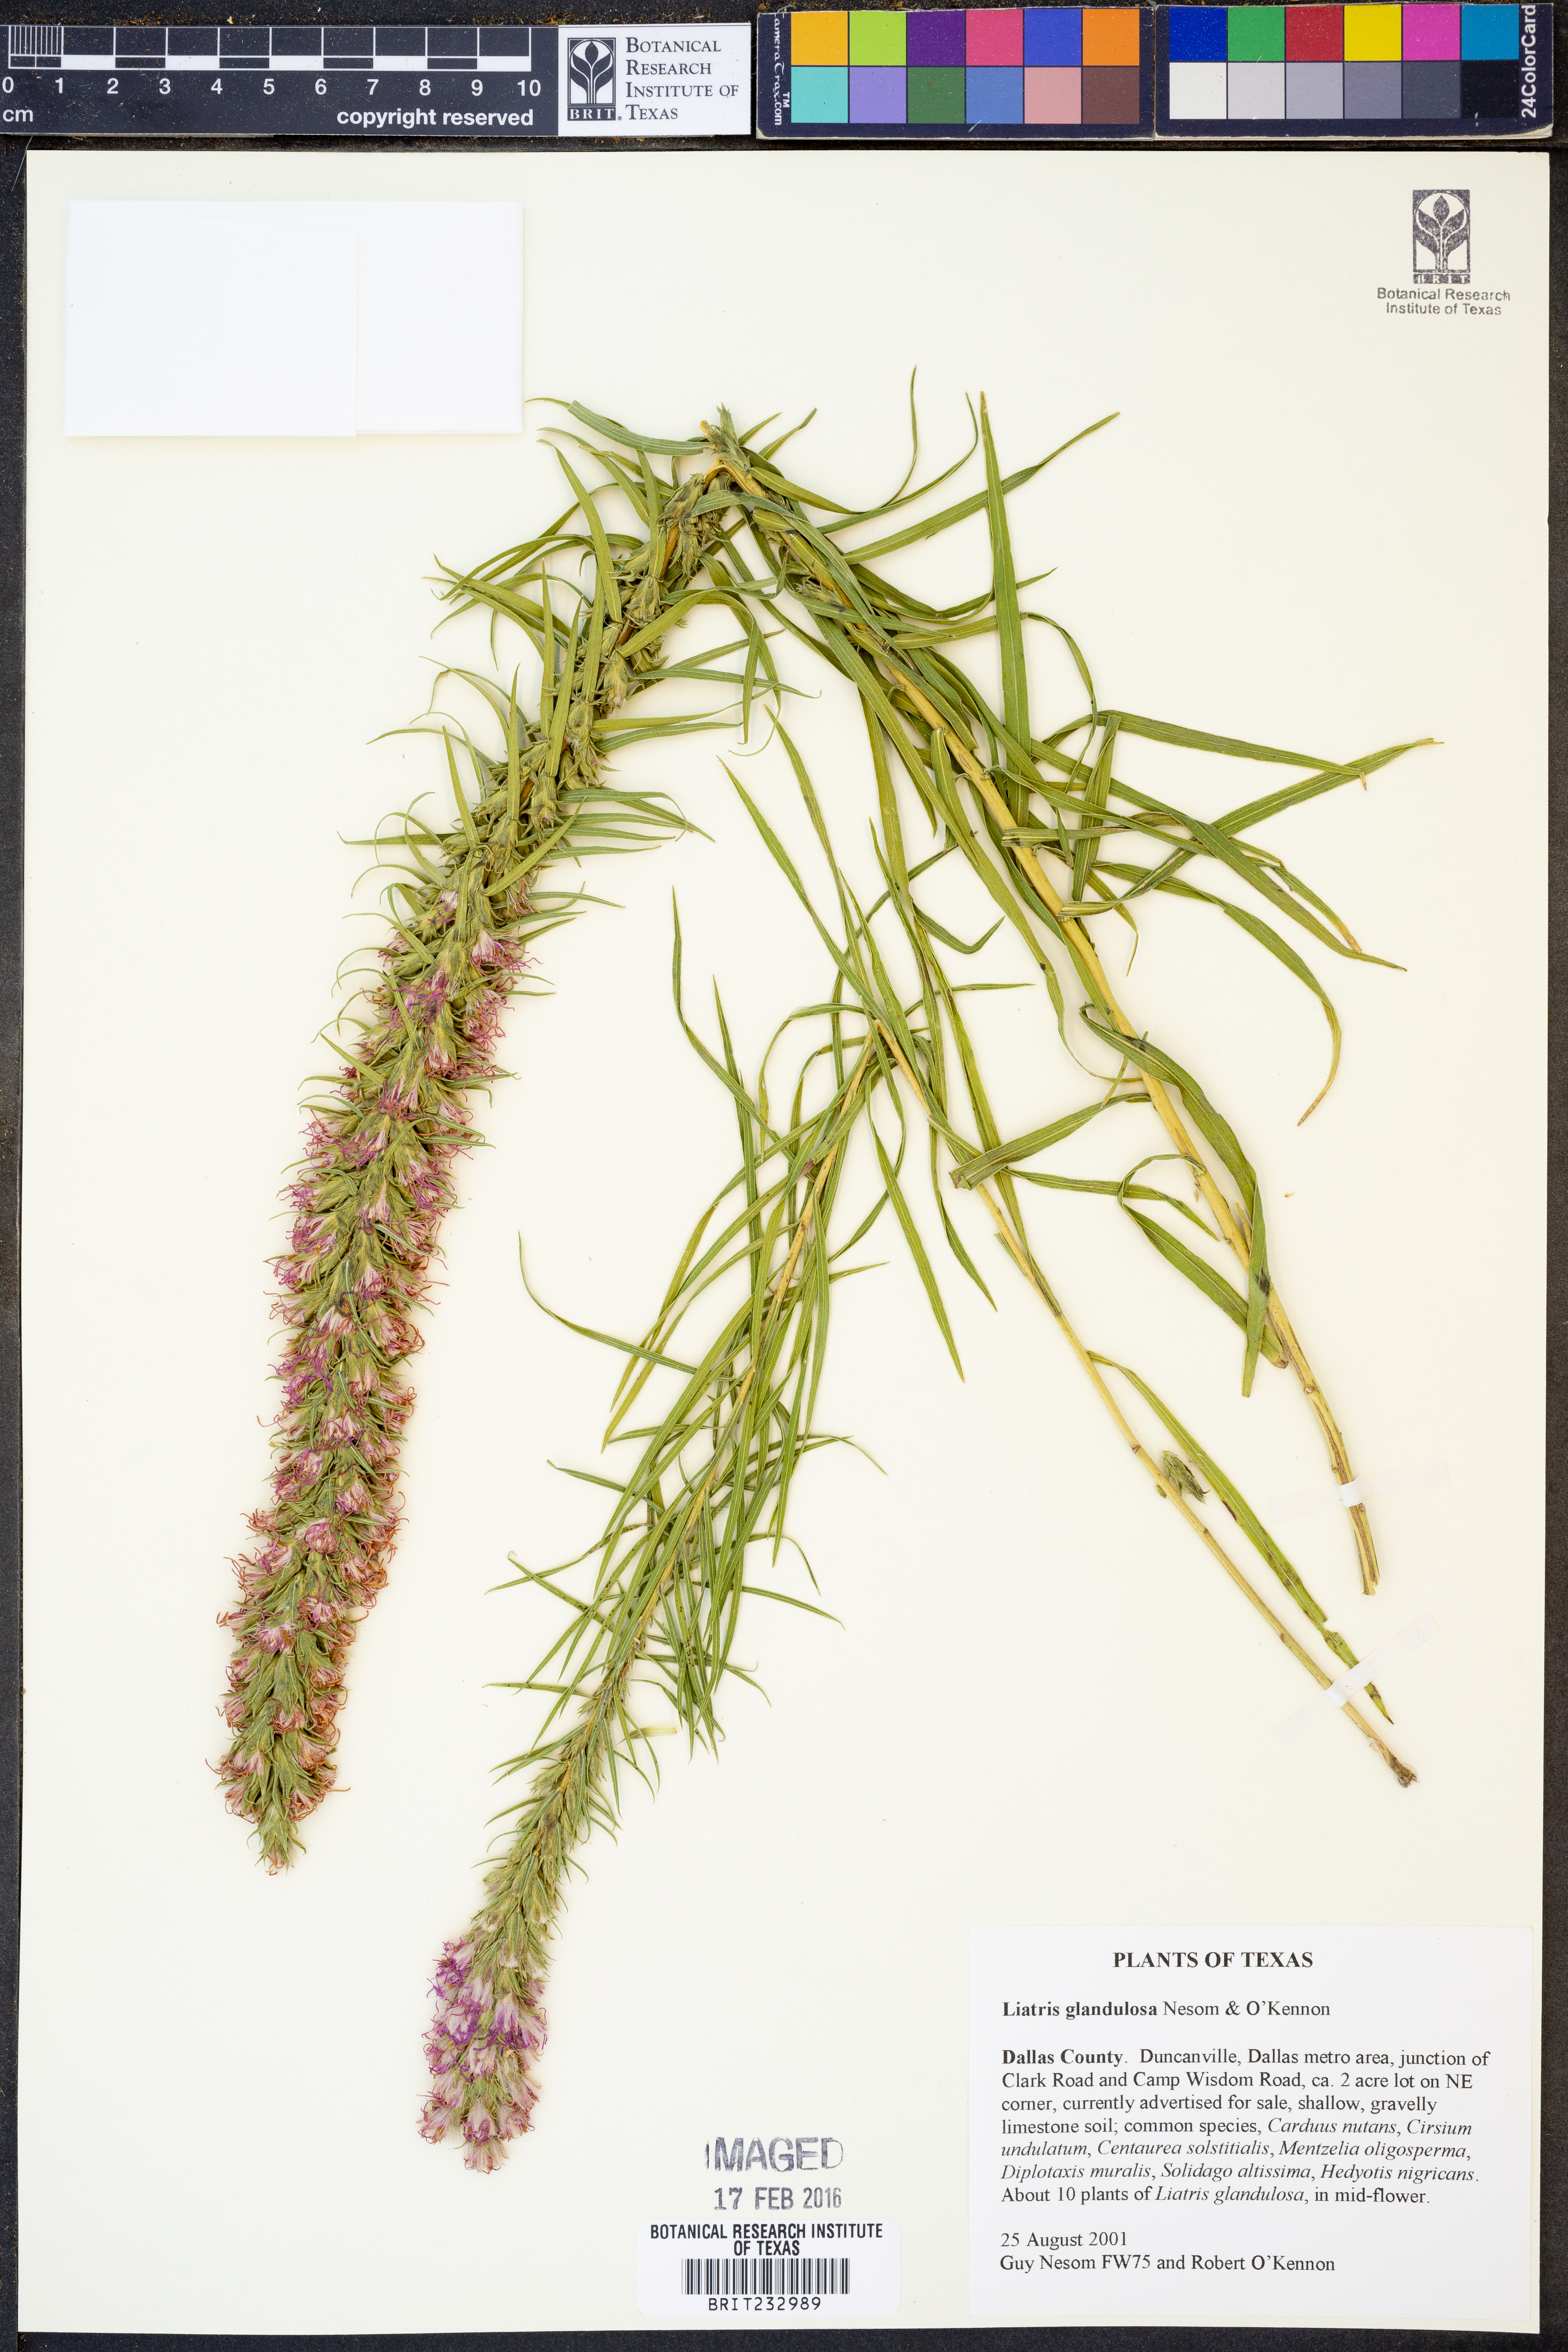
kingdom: Plantae
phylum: Tracheophyta
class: Magnoliopsida
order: Asterales
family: Asteraceae
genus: Liatris
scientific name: Liatris glandulosa
